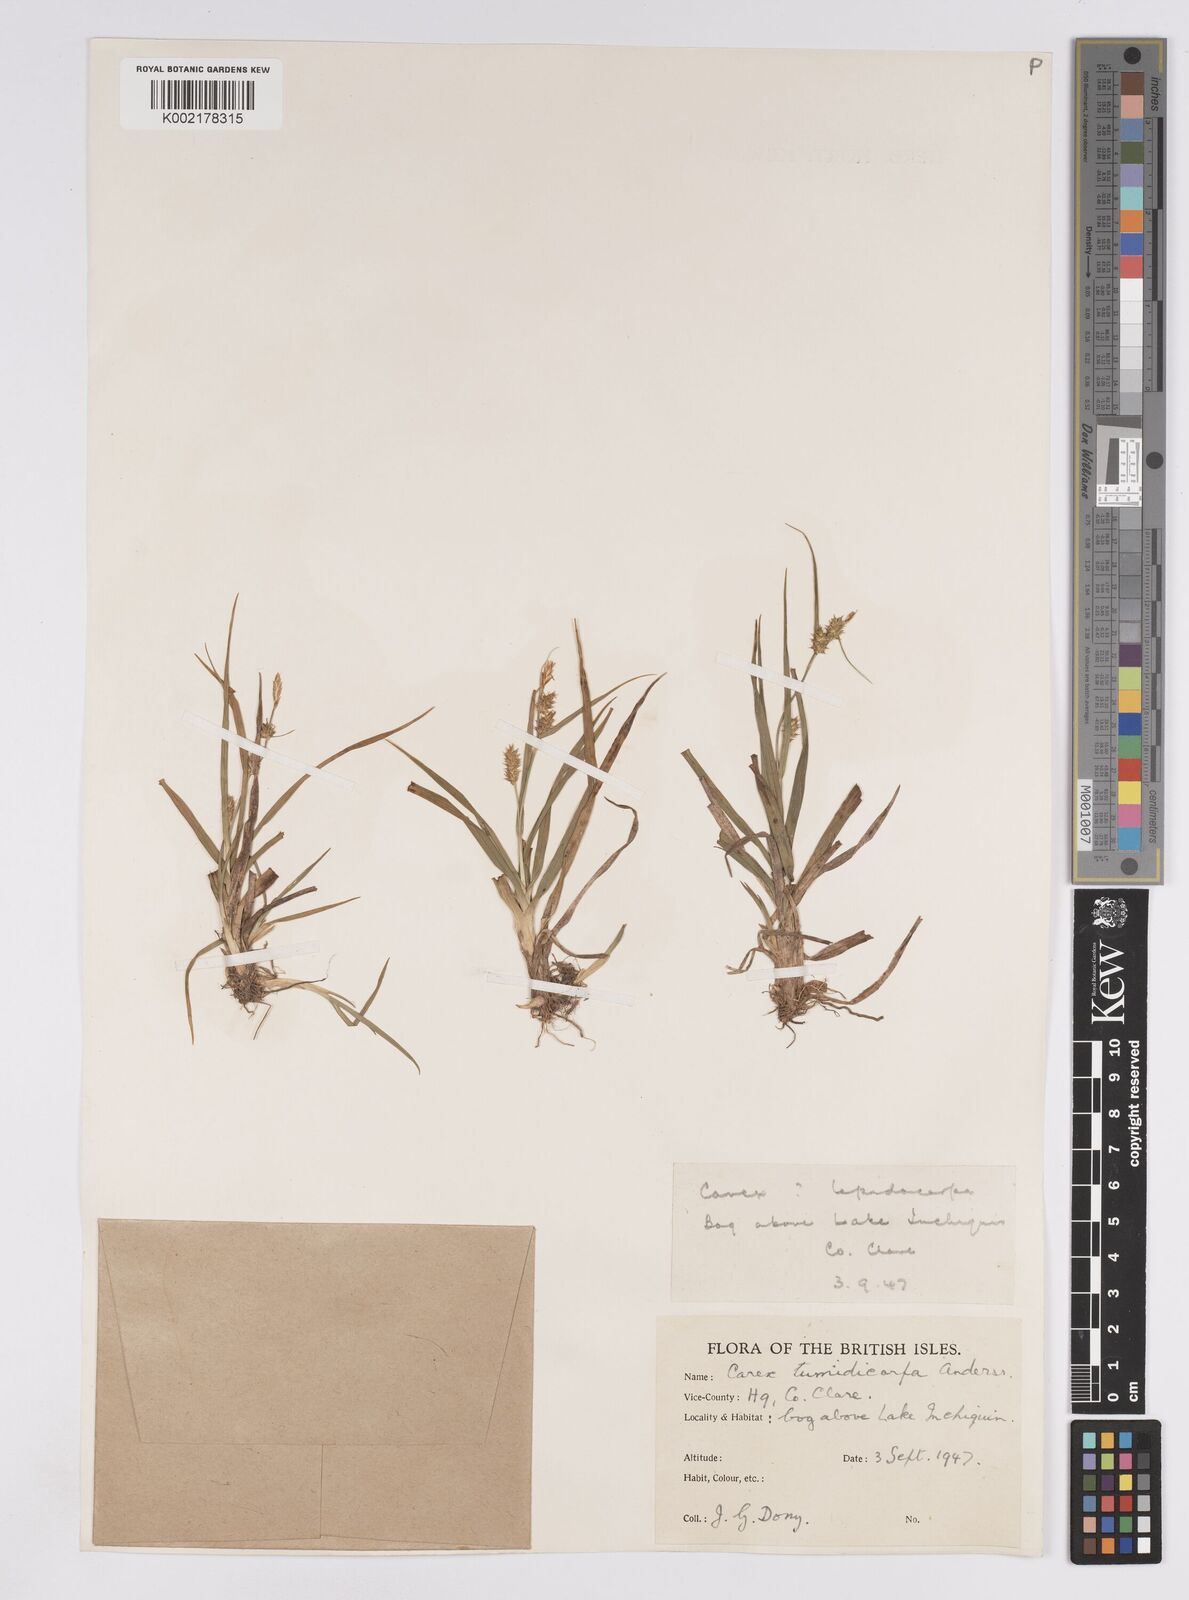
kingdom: Plantae
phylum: Tracheophyta
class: Liliopsida
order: Poales
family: Cyperaceae
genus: Carex
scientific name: Carex demissa
